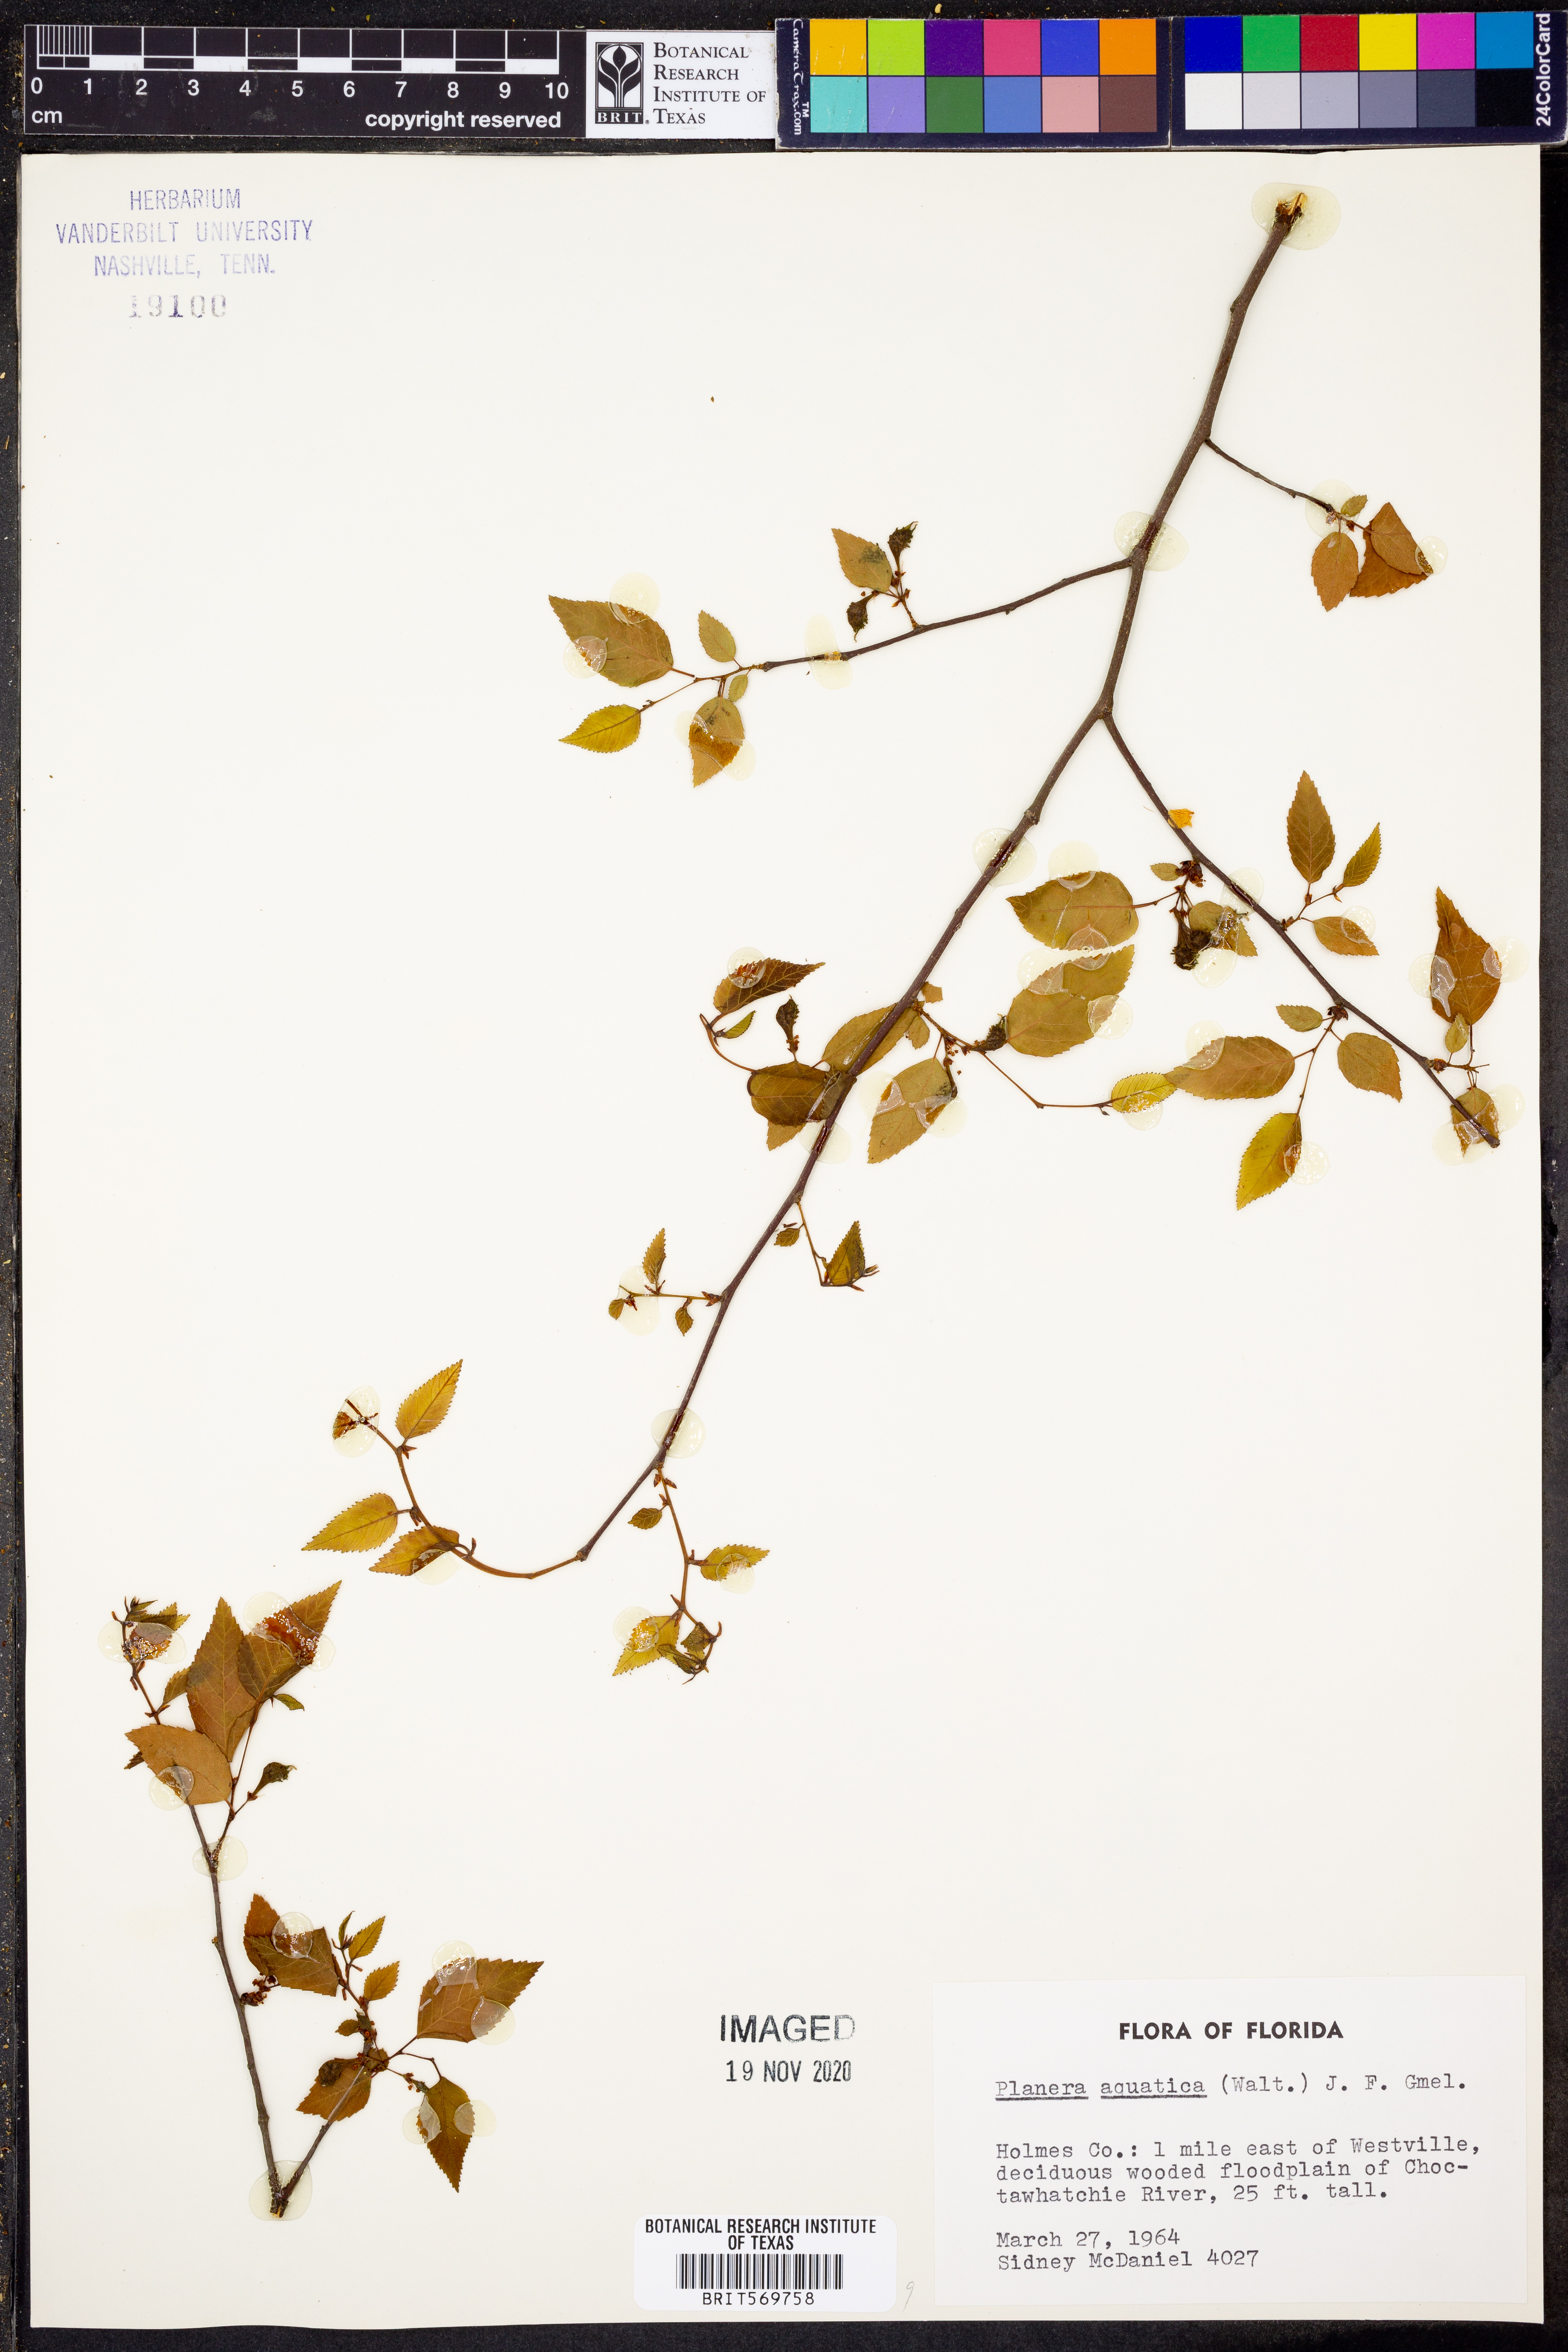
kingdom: Plantae
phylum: Tracheophyta
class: Magnoliopsida
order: Rosales
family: Ulmaceae
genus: Planera
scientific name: Planera aquatica
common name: Water-elm
